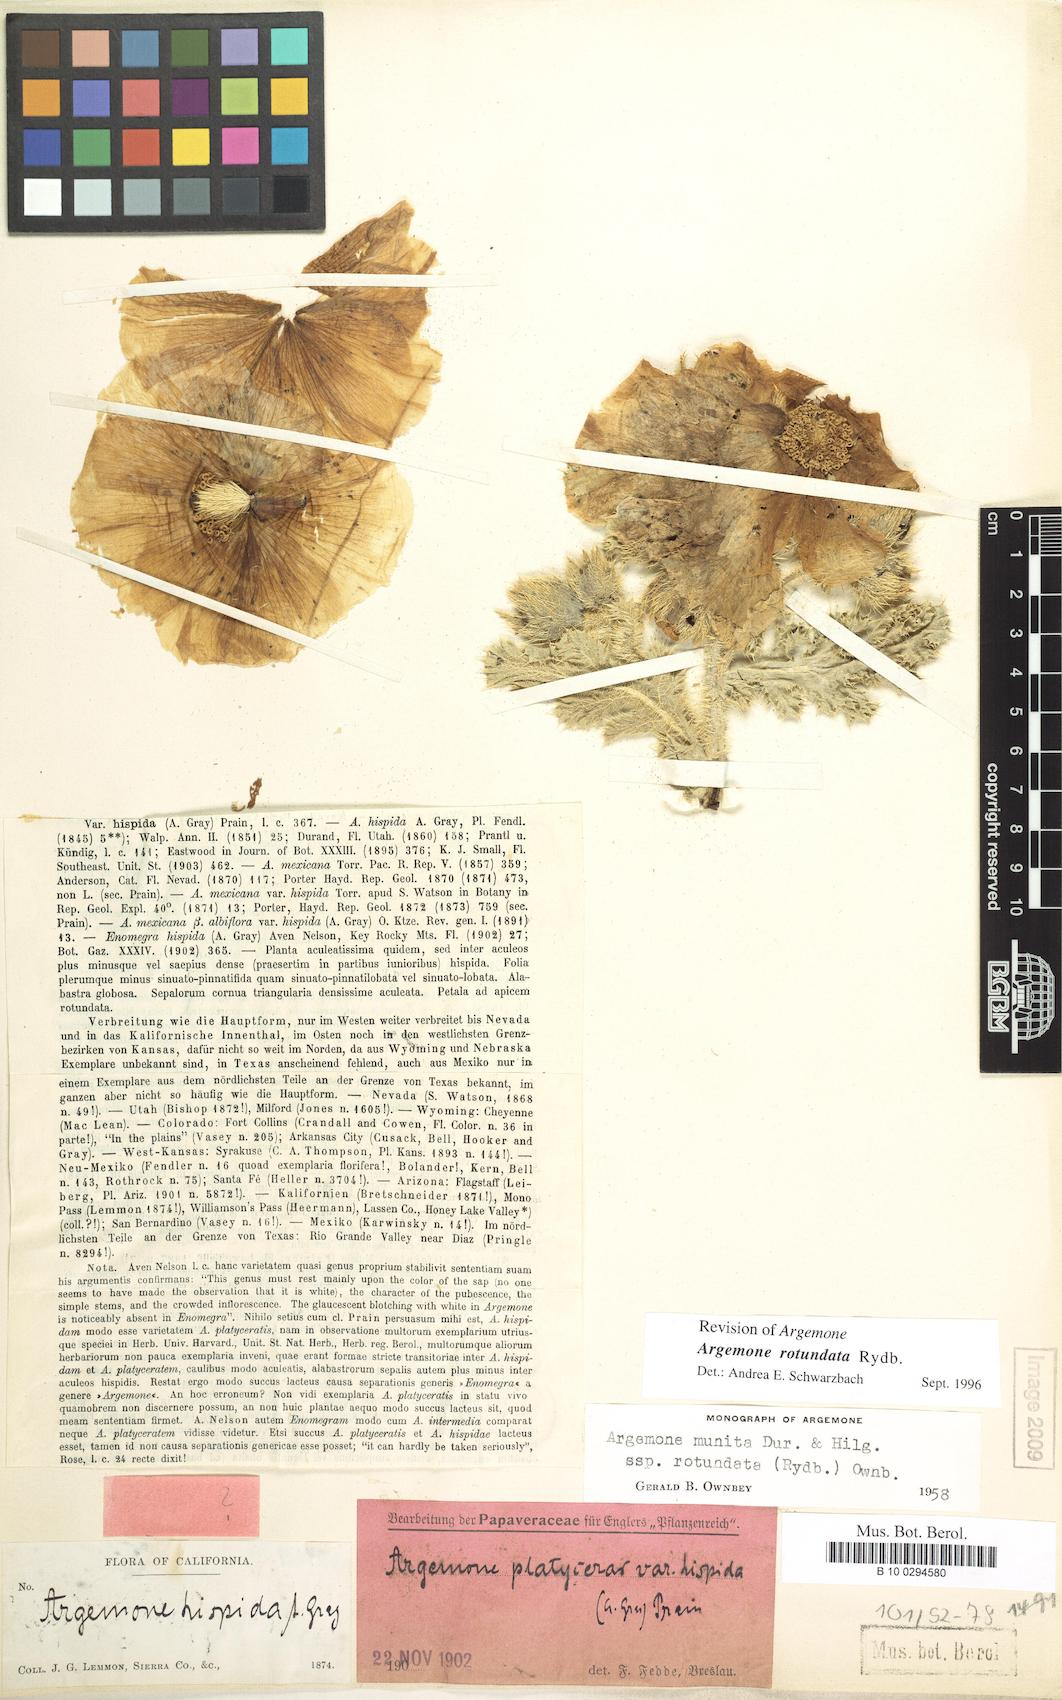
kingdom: Plantae
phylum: Tracheophyta
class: Magnoliopsida
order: Ranunculales
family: Papaveraceae
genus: Argemone
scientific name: Argemone munita
